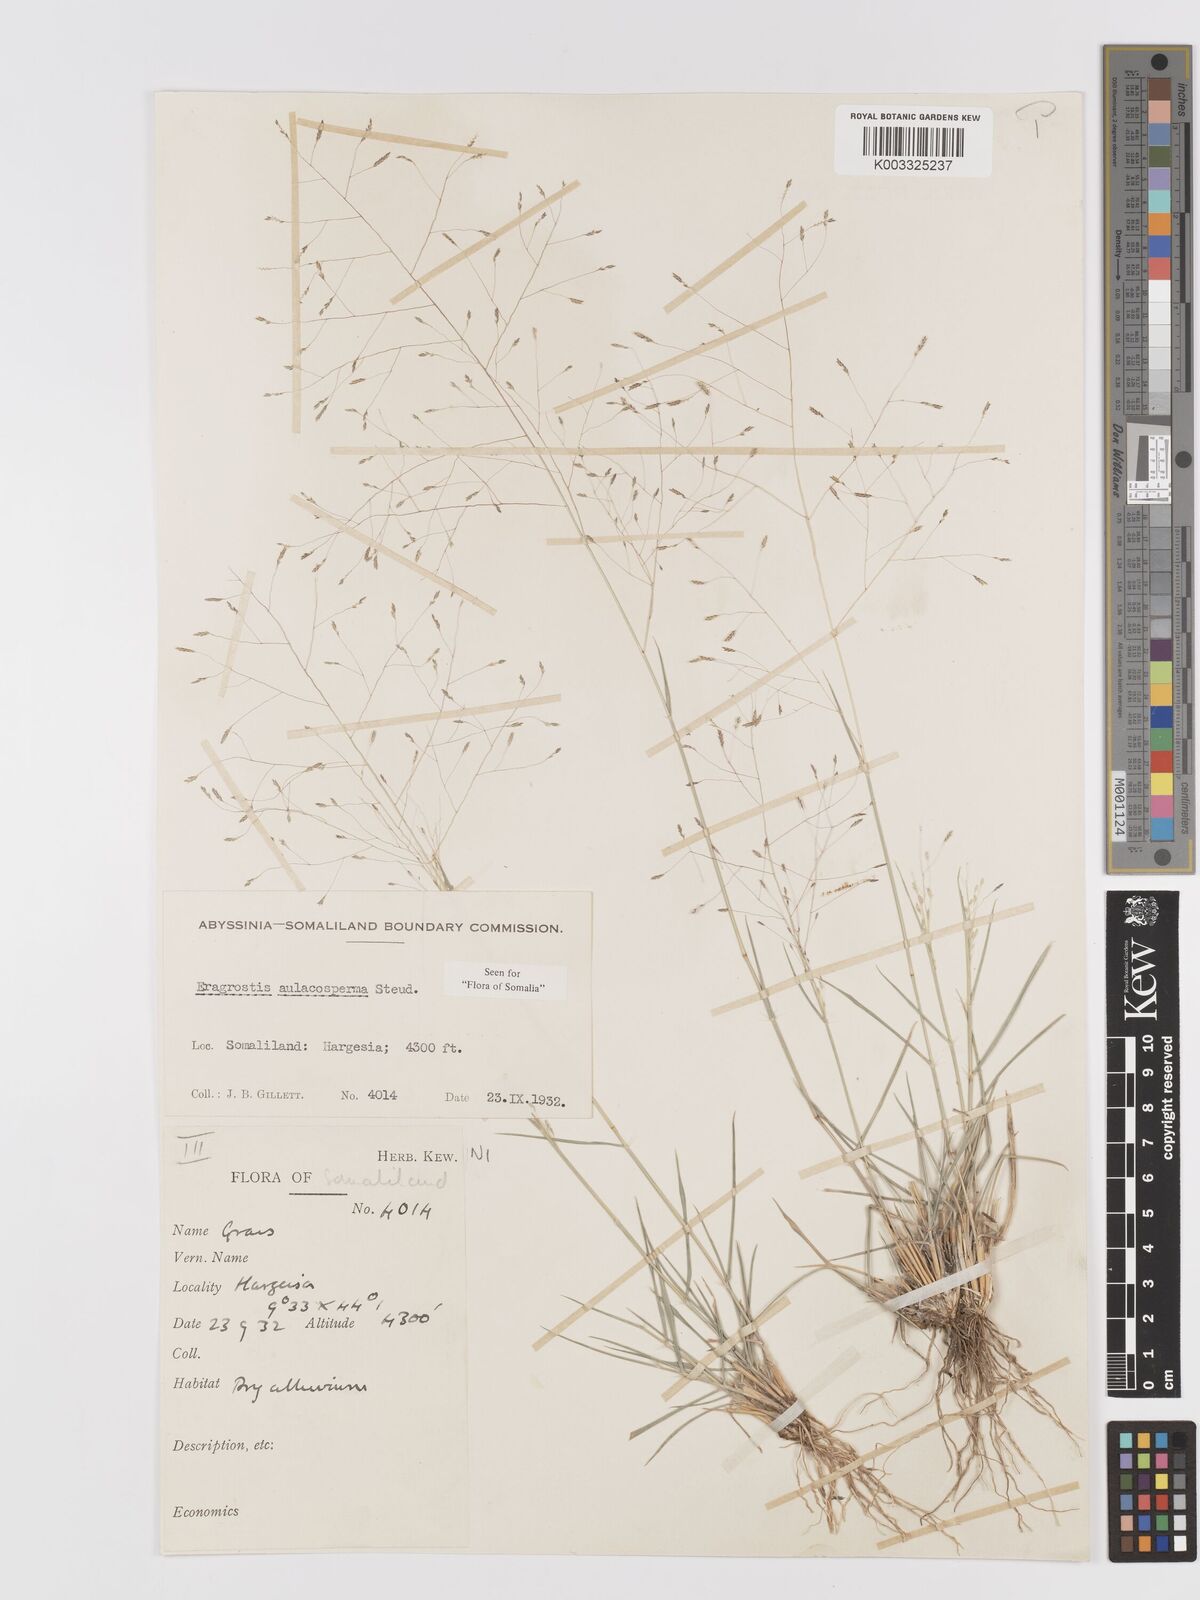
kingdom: Plantae
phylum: Tracheophyta
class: Liliopsida
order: Poales
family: Poaceae
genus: Eragrostis
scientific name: Eragrostis papposa
